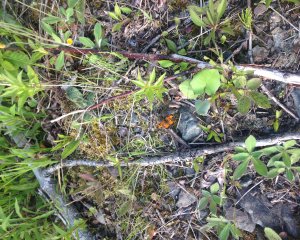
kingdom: Animalia
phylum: Arthropoda
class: Insecta
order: Lepidoptera
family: Nymphalidae
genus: Phyciodes
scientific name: Phyciodes tharos
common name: Northern Crescent
